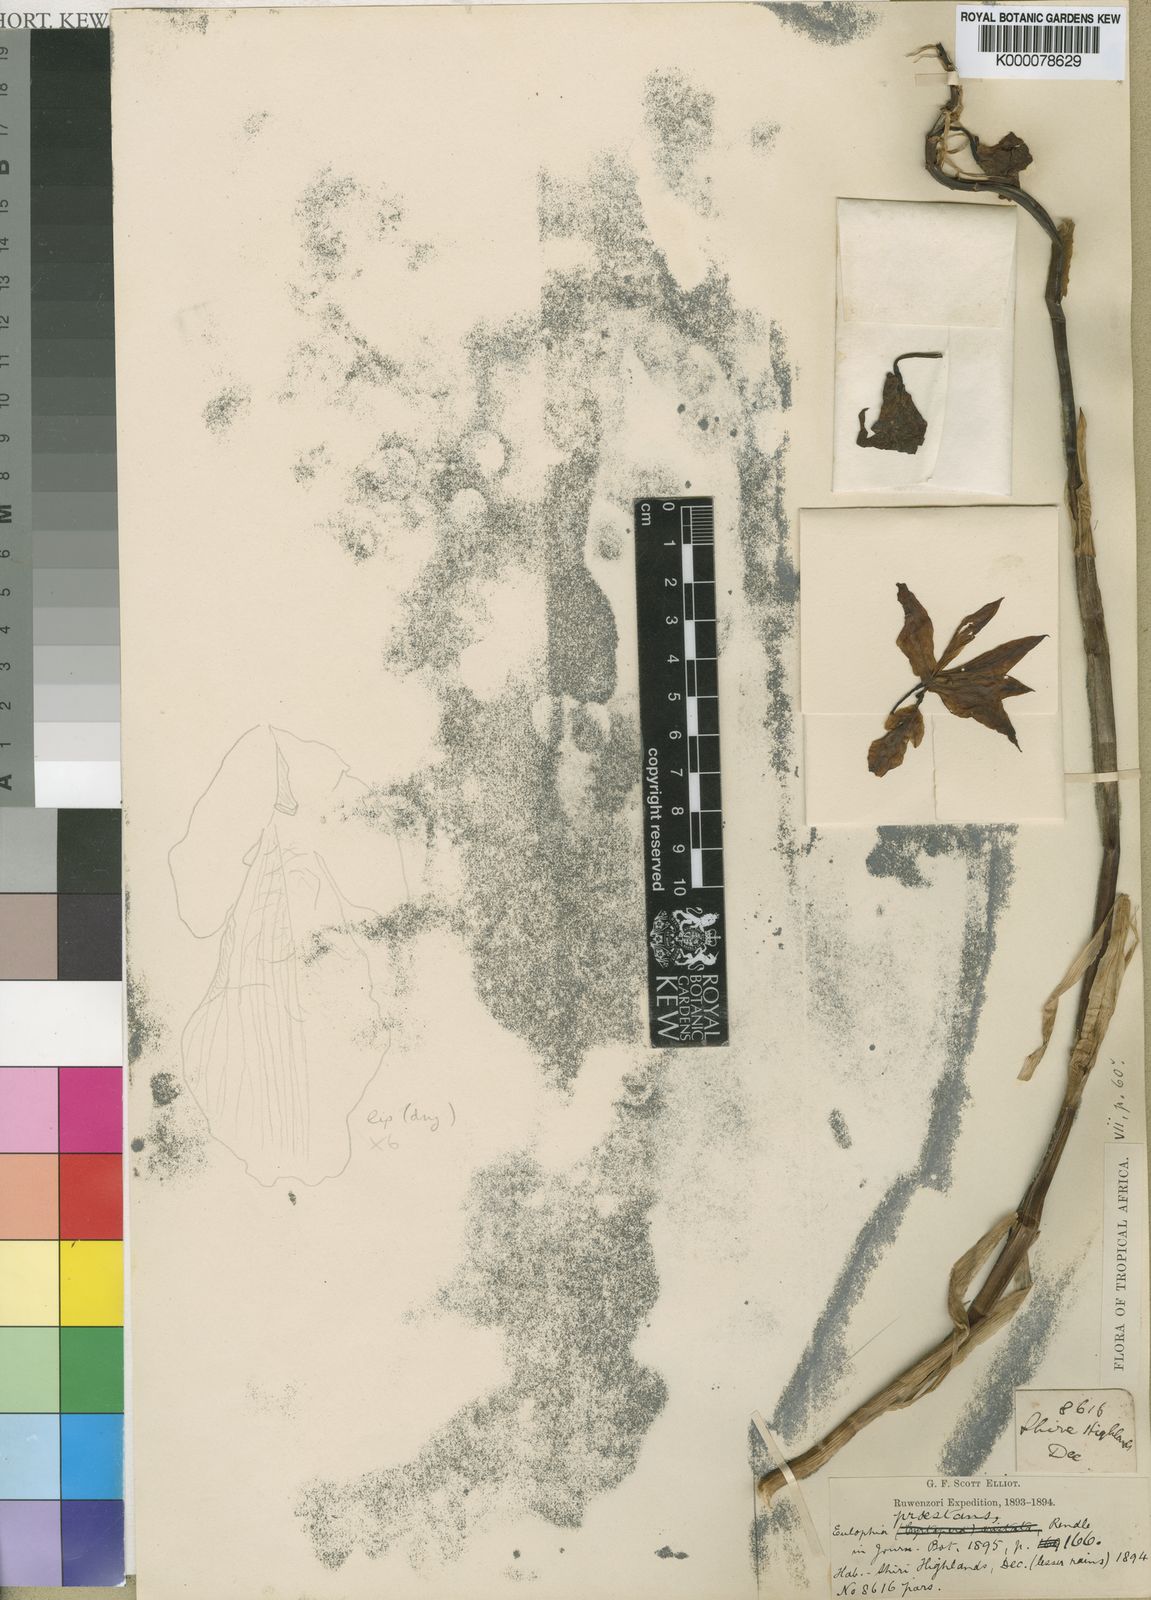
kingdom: Plantae
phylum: Tracheophyta
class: Liliopsida
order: Asparagales
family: Orchidaceae
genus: Eulophia
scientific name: Eulophia mechowii
